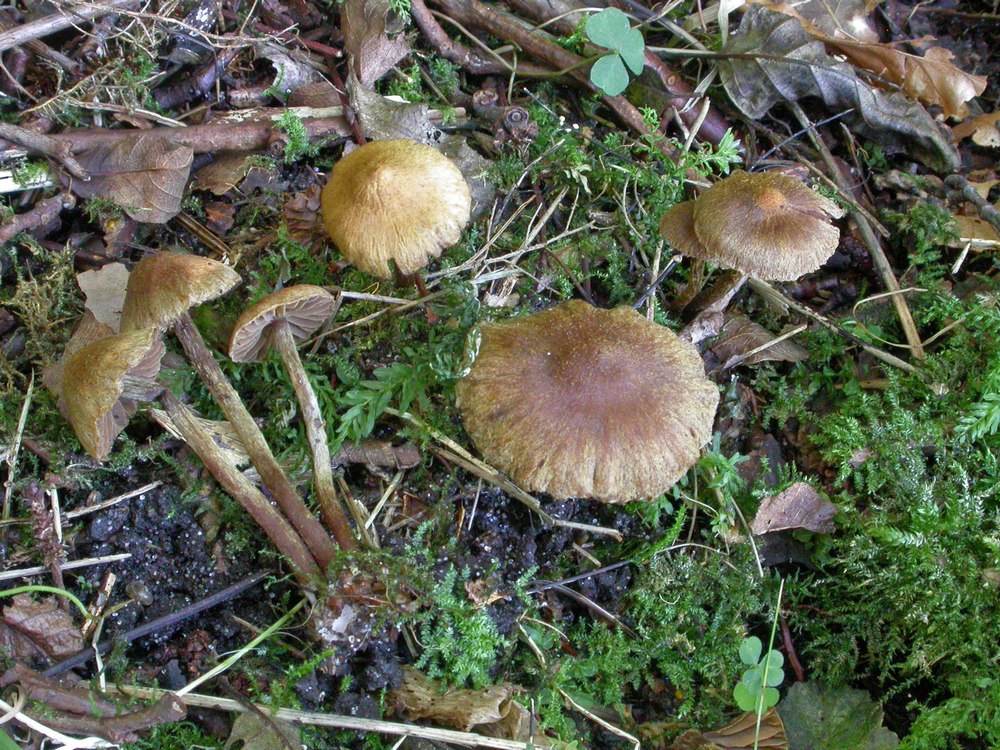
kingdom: Fungi
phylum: Basidiomycota
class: Agaricomycetes
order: Agaricales
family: Cortinariaceae
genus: Cortinarius
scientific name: Cortinarius helvelloides
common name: fjernbladet slørhat
